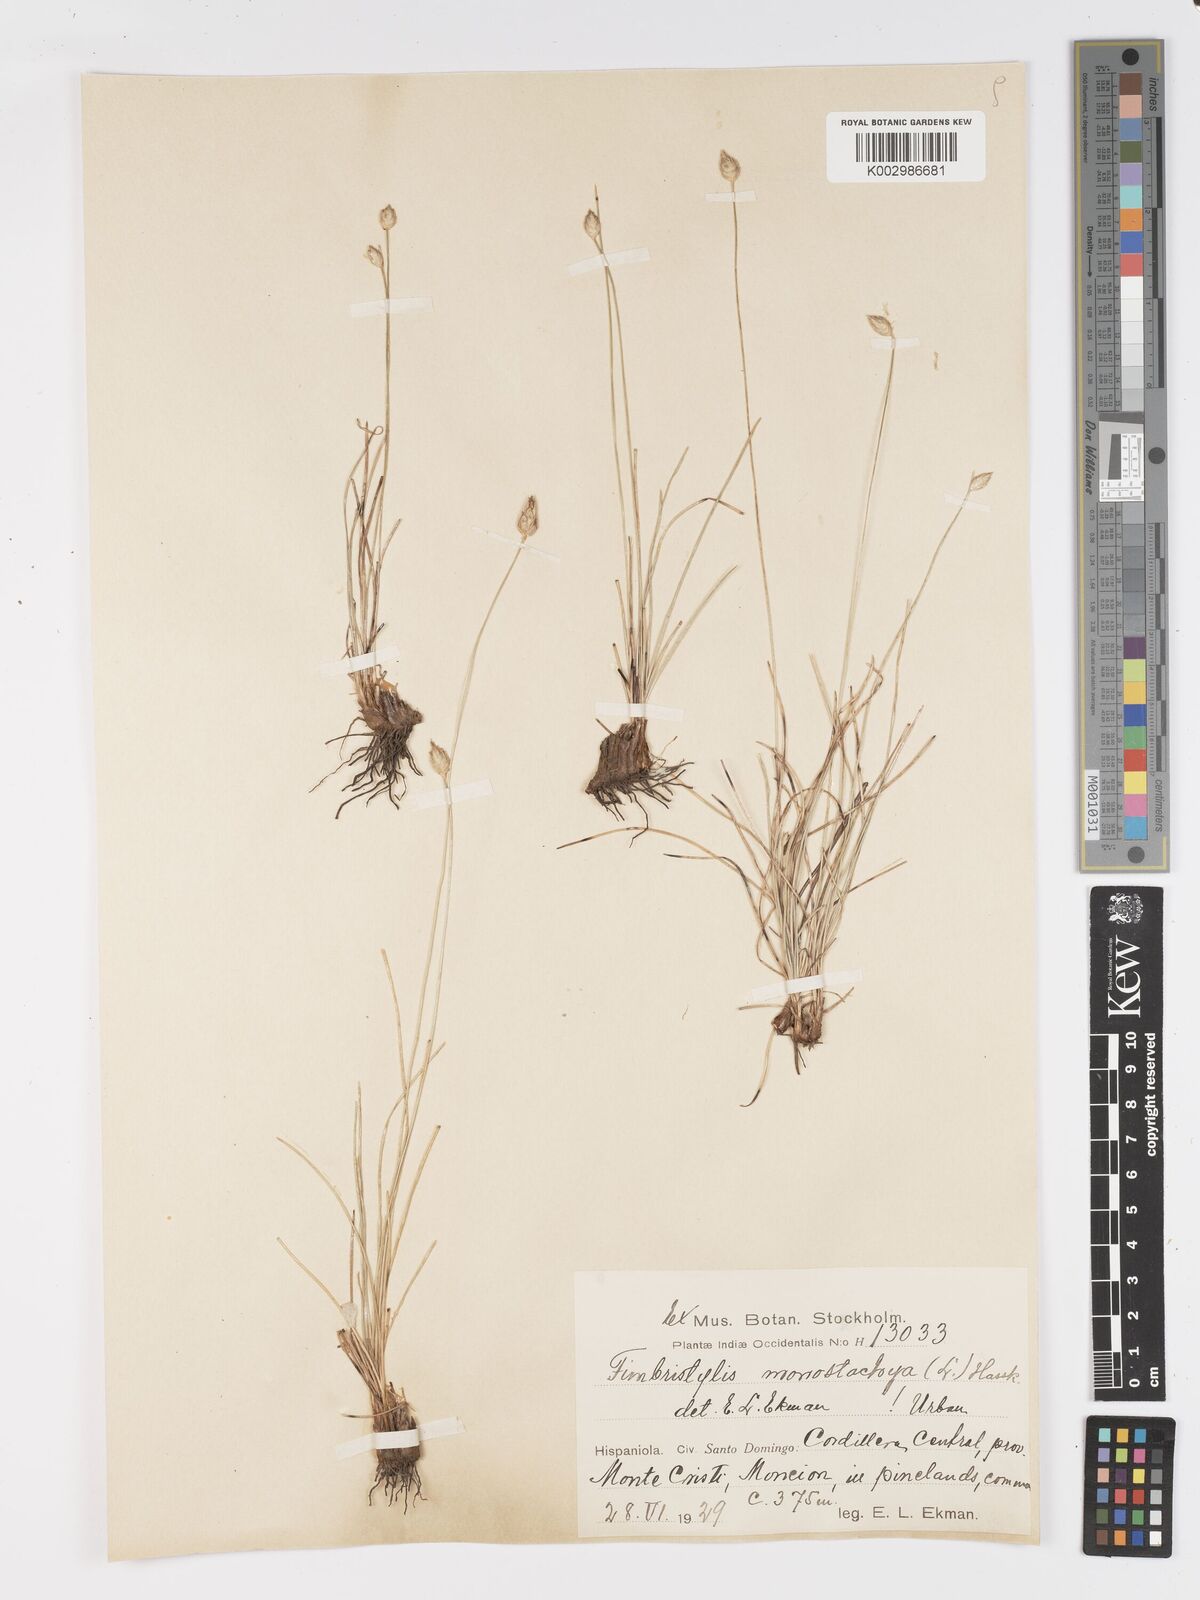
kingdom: Plantae
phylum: Tracheophyta
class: Liliopsida
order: Poales
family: Cyperaceae
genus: Abildgaardia
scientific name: Abildgaardia ovata
